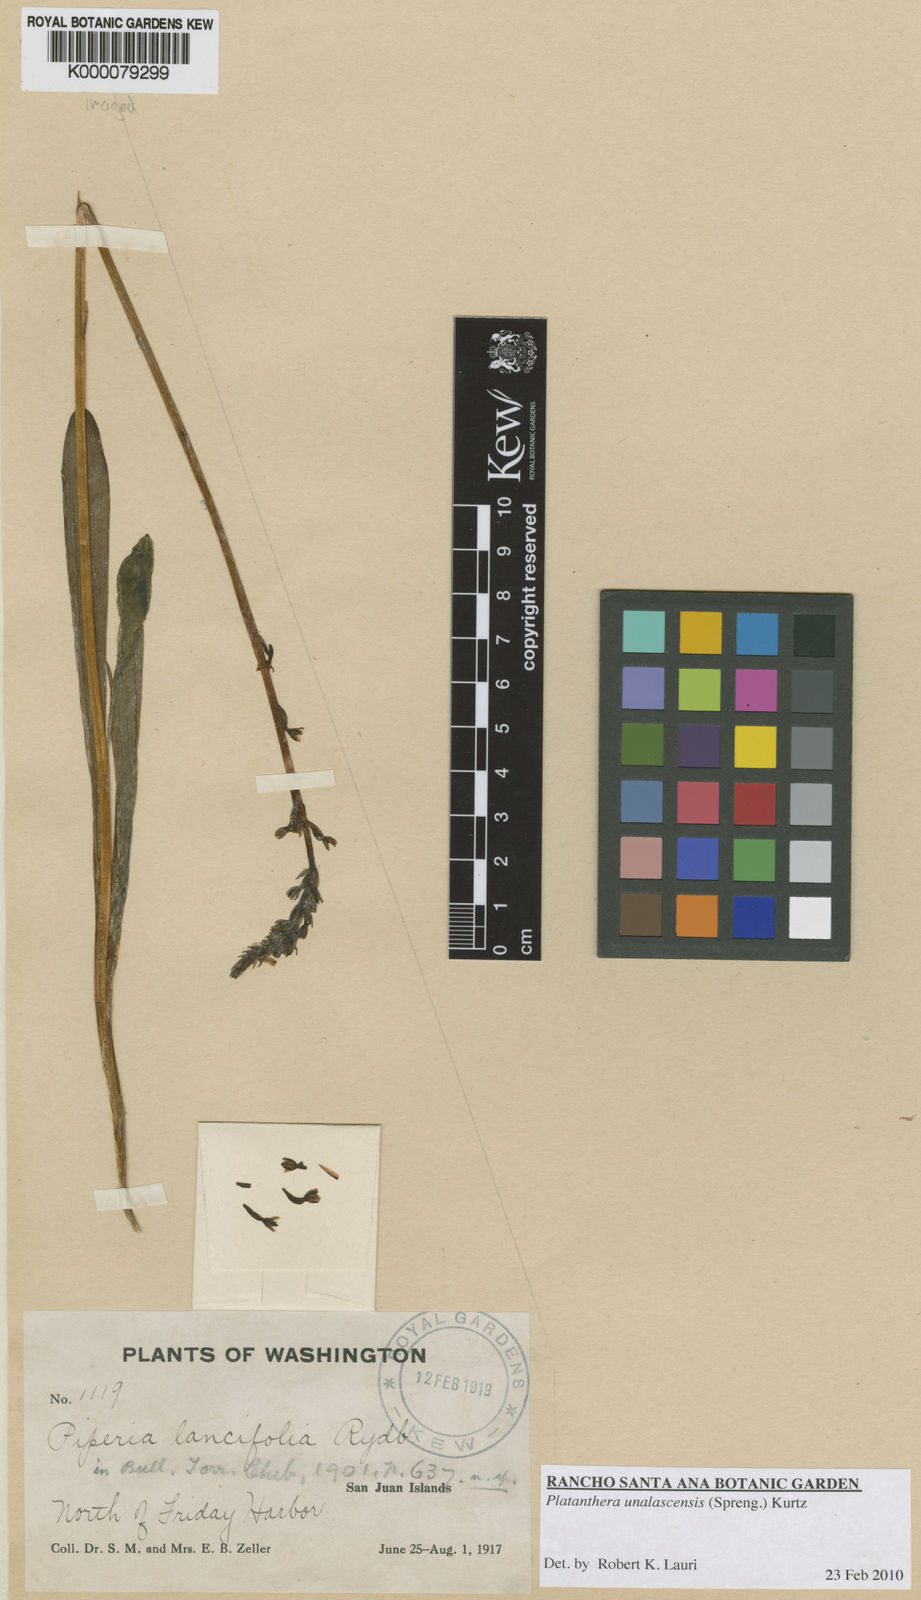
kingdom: Plantae
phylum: Tracheophyta
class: Liliopsida
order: Asparagales
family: Orchidaceae
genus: Platanthera
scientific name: Platanthera unalascensis
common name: Alaska bog orchid
